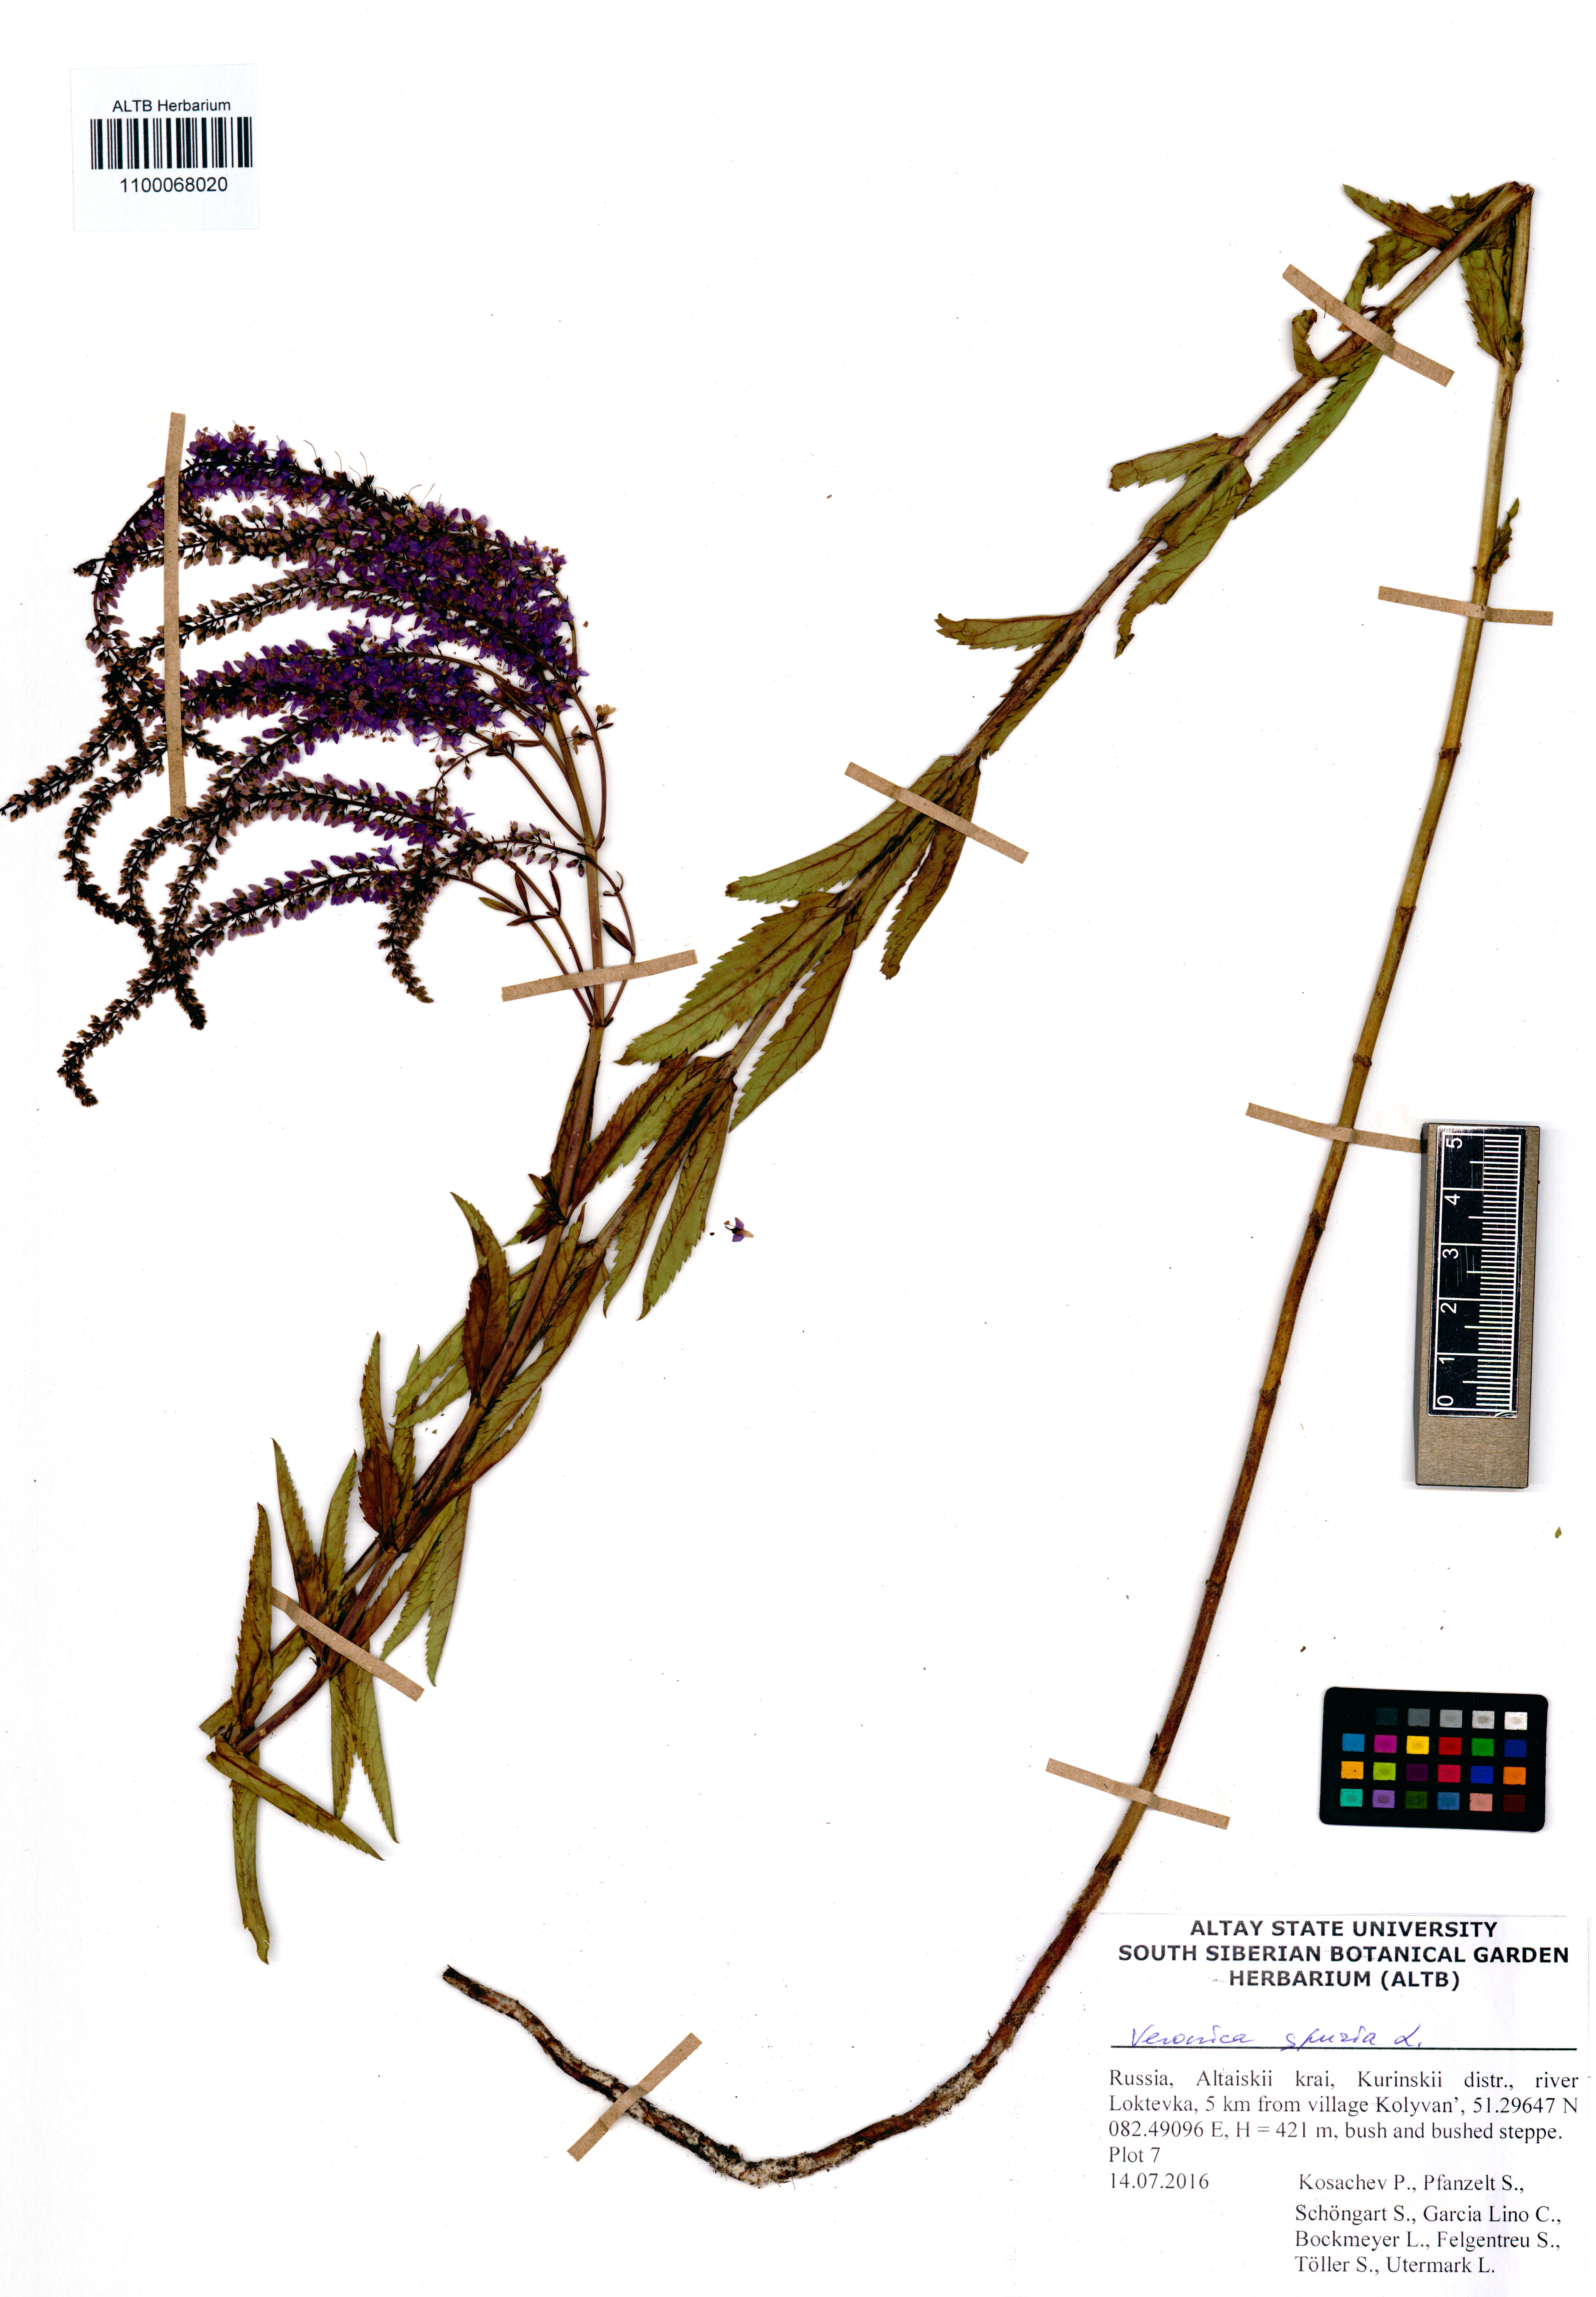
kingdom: Plantae
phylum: Tracheophyta
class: Magnoliopsida
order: Lamiales
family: Plantaginaceae
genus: Veronica
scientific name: Veronica spuria
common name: Bastard speedwell
